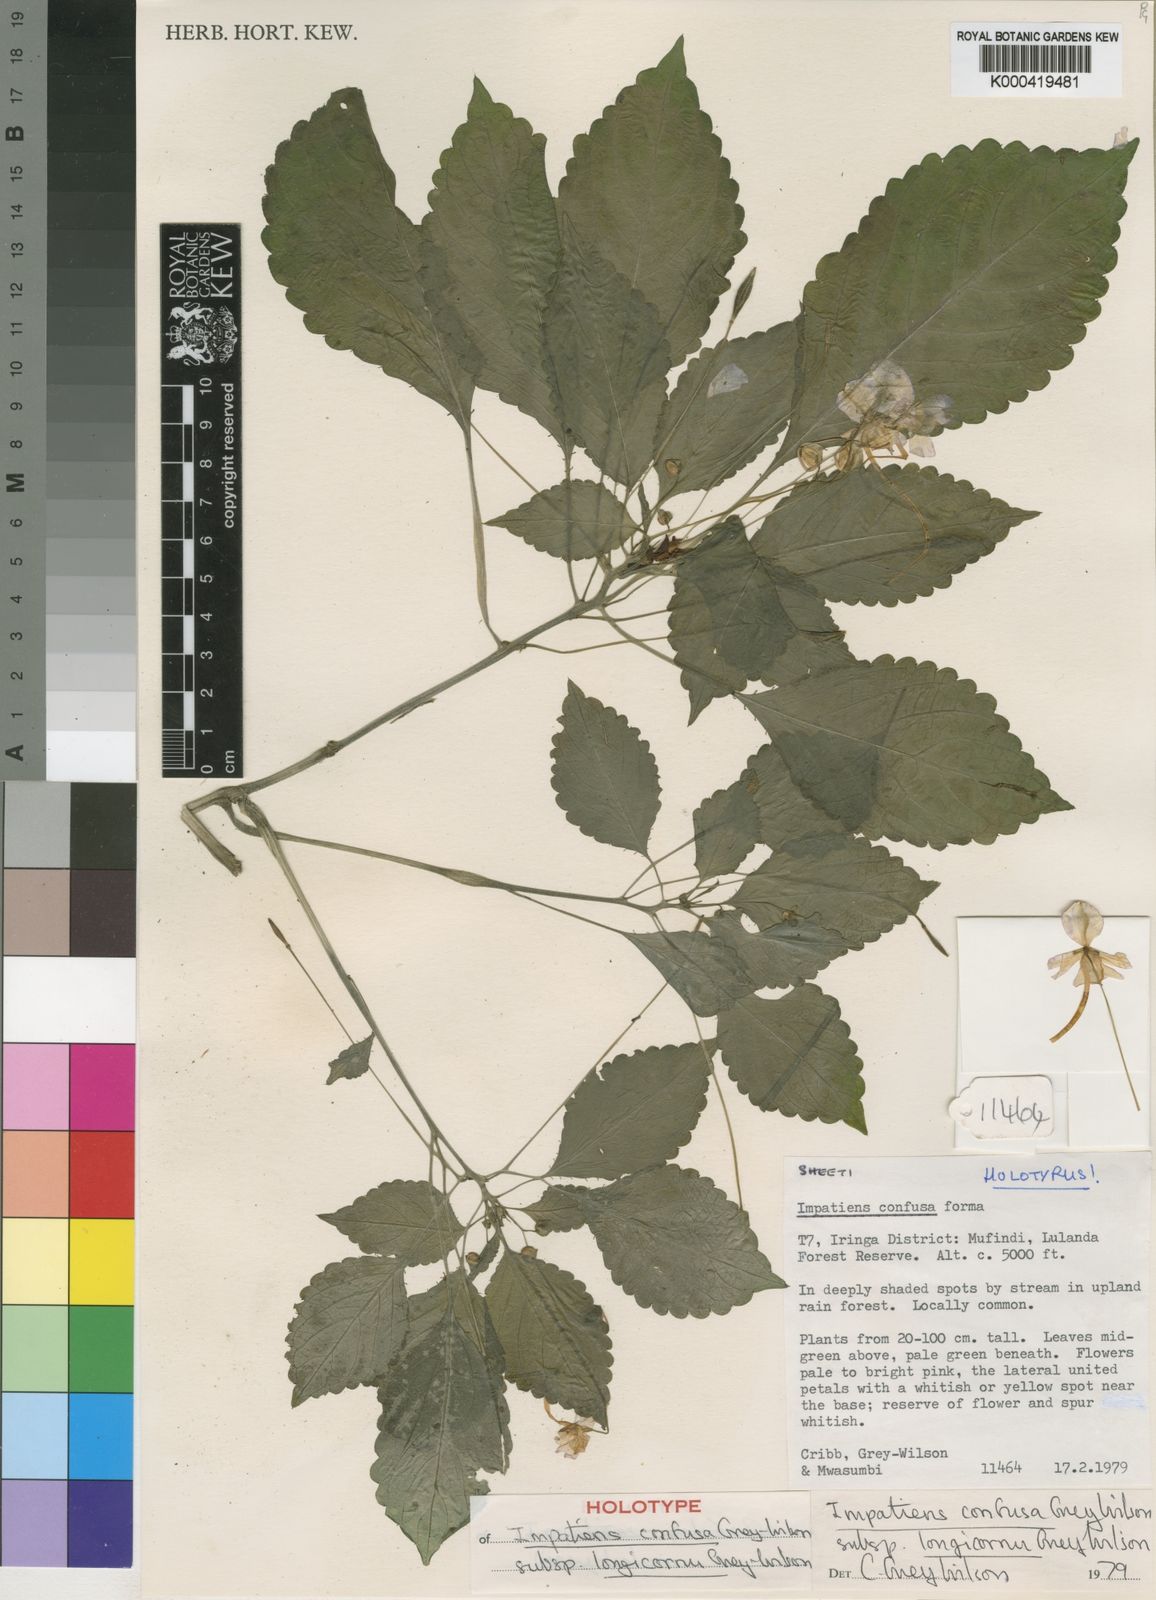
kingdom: Plantae
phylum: Tracheophyta
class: Magnoliopsida
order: Ericales
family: Balsaminaceae
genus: Impatiens
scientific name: Impatiens confusa
